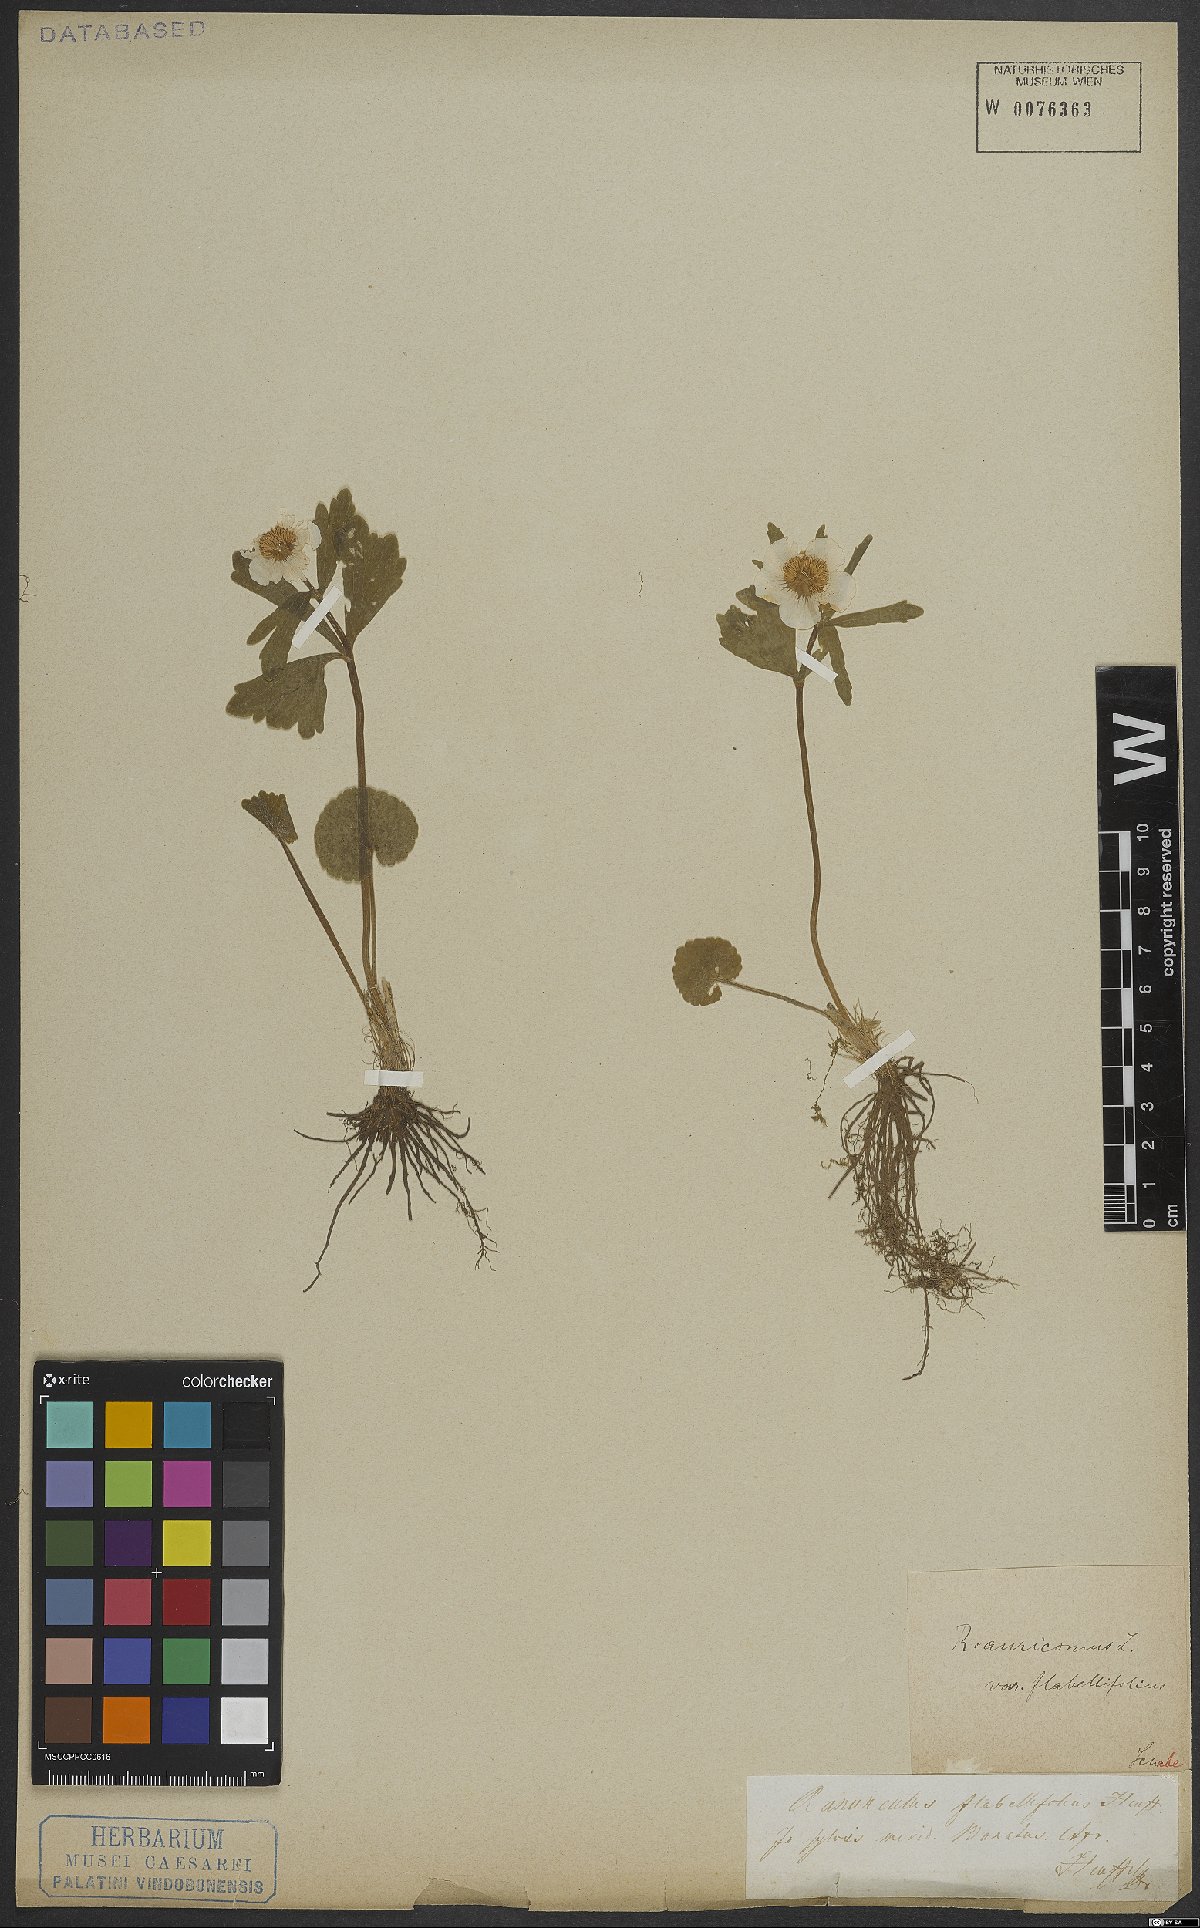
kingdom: Plantae
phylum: Tracheophyta
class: Magnoliopsida
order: Ranunculales
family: Ranunculaceae
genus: Ranunculus
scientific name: Ranunculus auricomus
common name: Goldilocks buttercup
